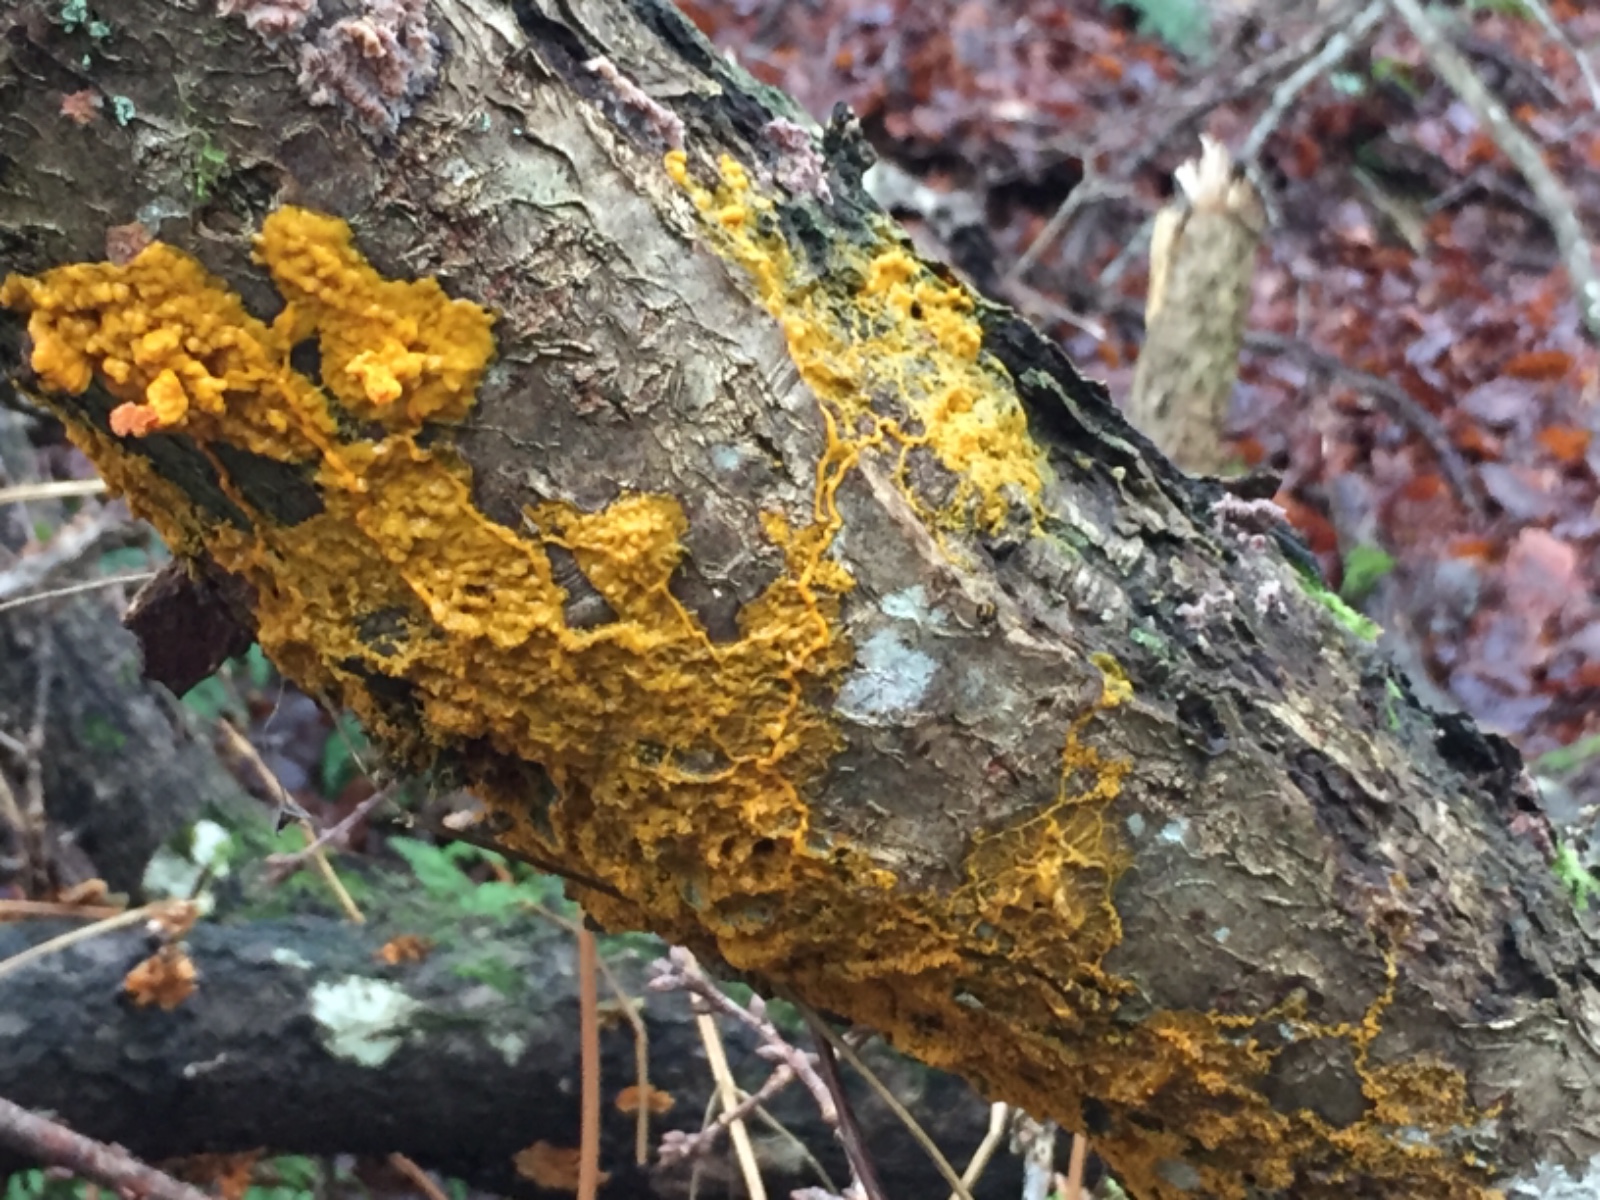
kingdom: Protozoa
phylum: Mycetozoa
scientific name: Mycetozoa
